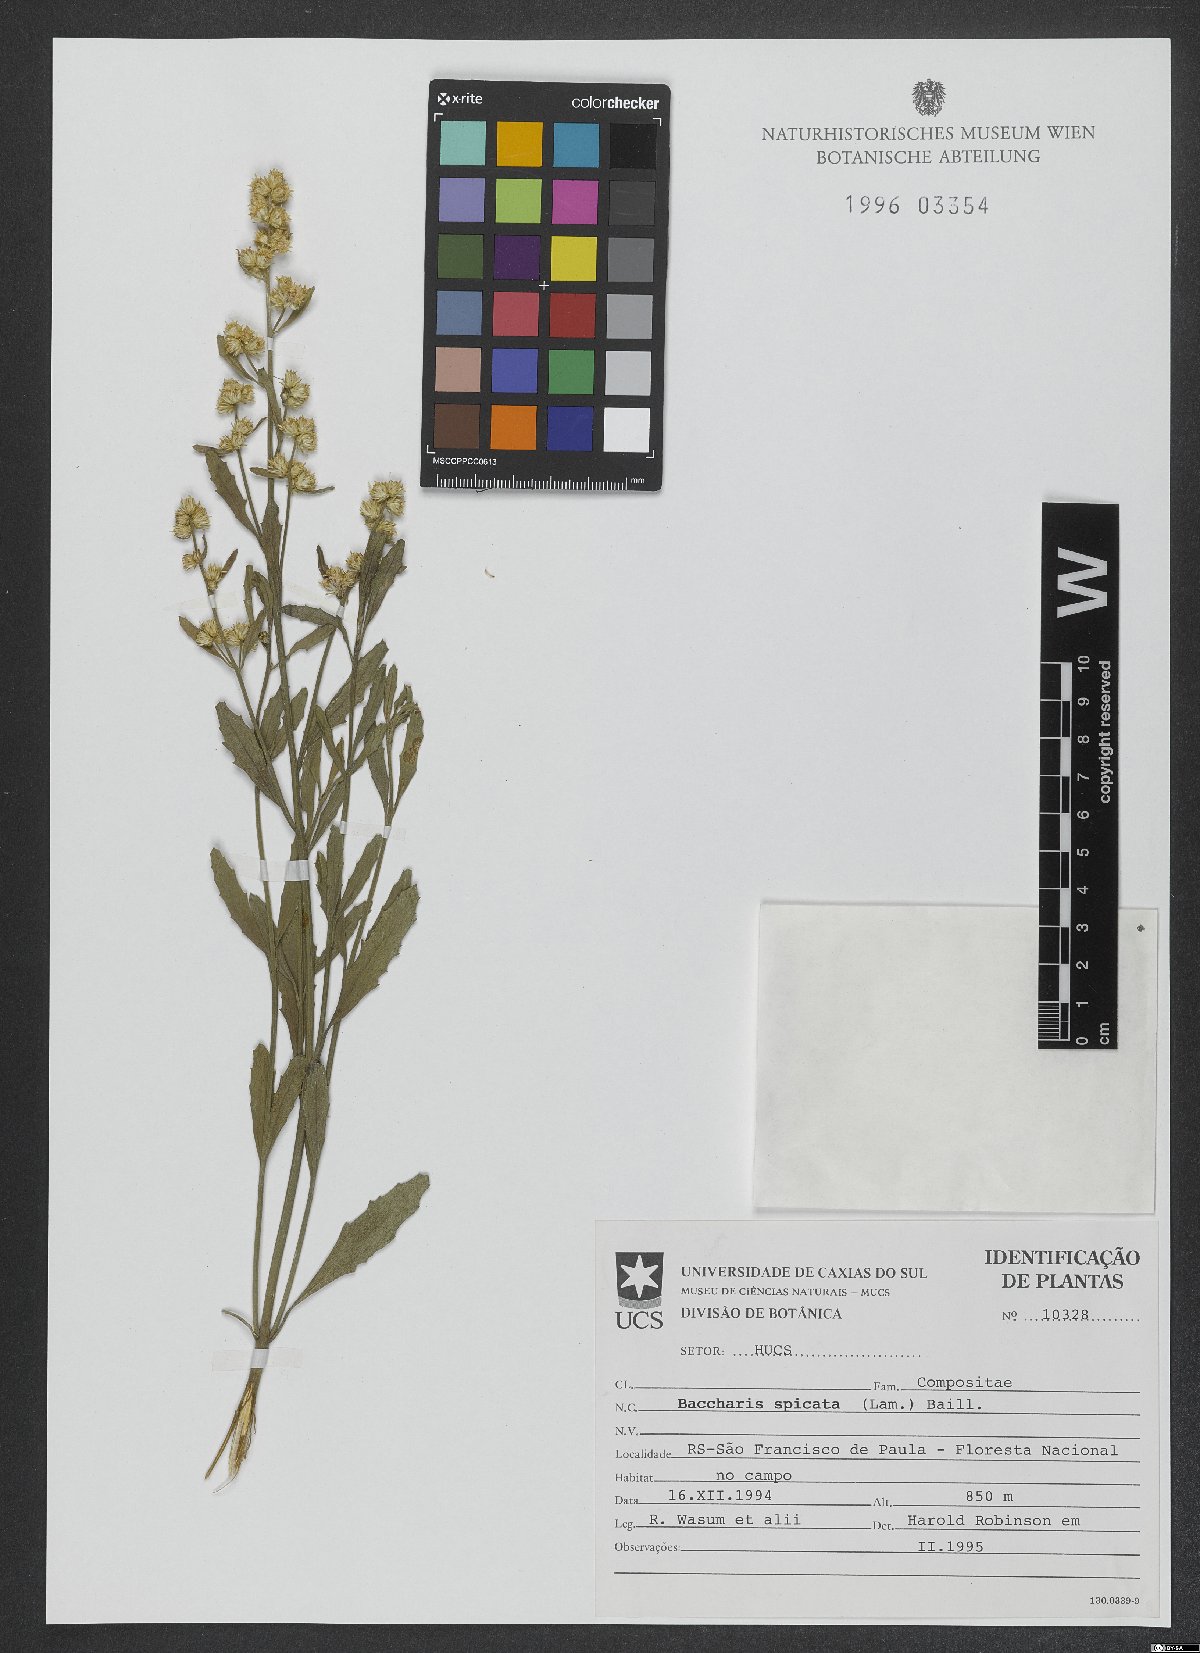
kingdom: Plantae
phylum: Tracheophyta
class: Magnoliopsida
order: Asterales
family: Asteraceae
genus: Baccharis
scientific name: Baccharis spicata
